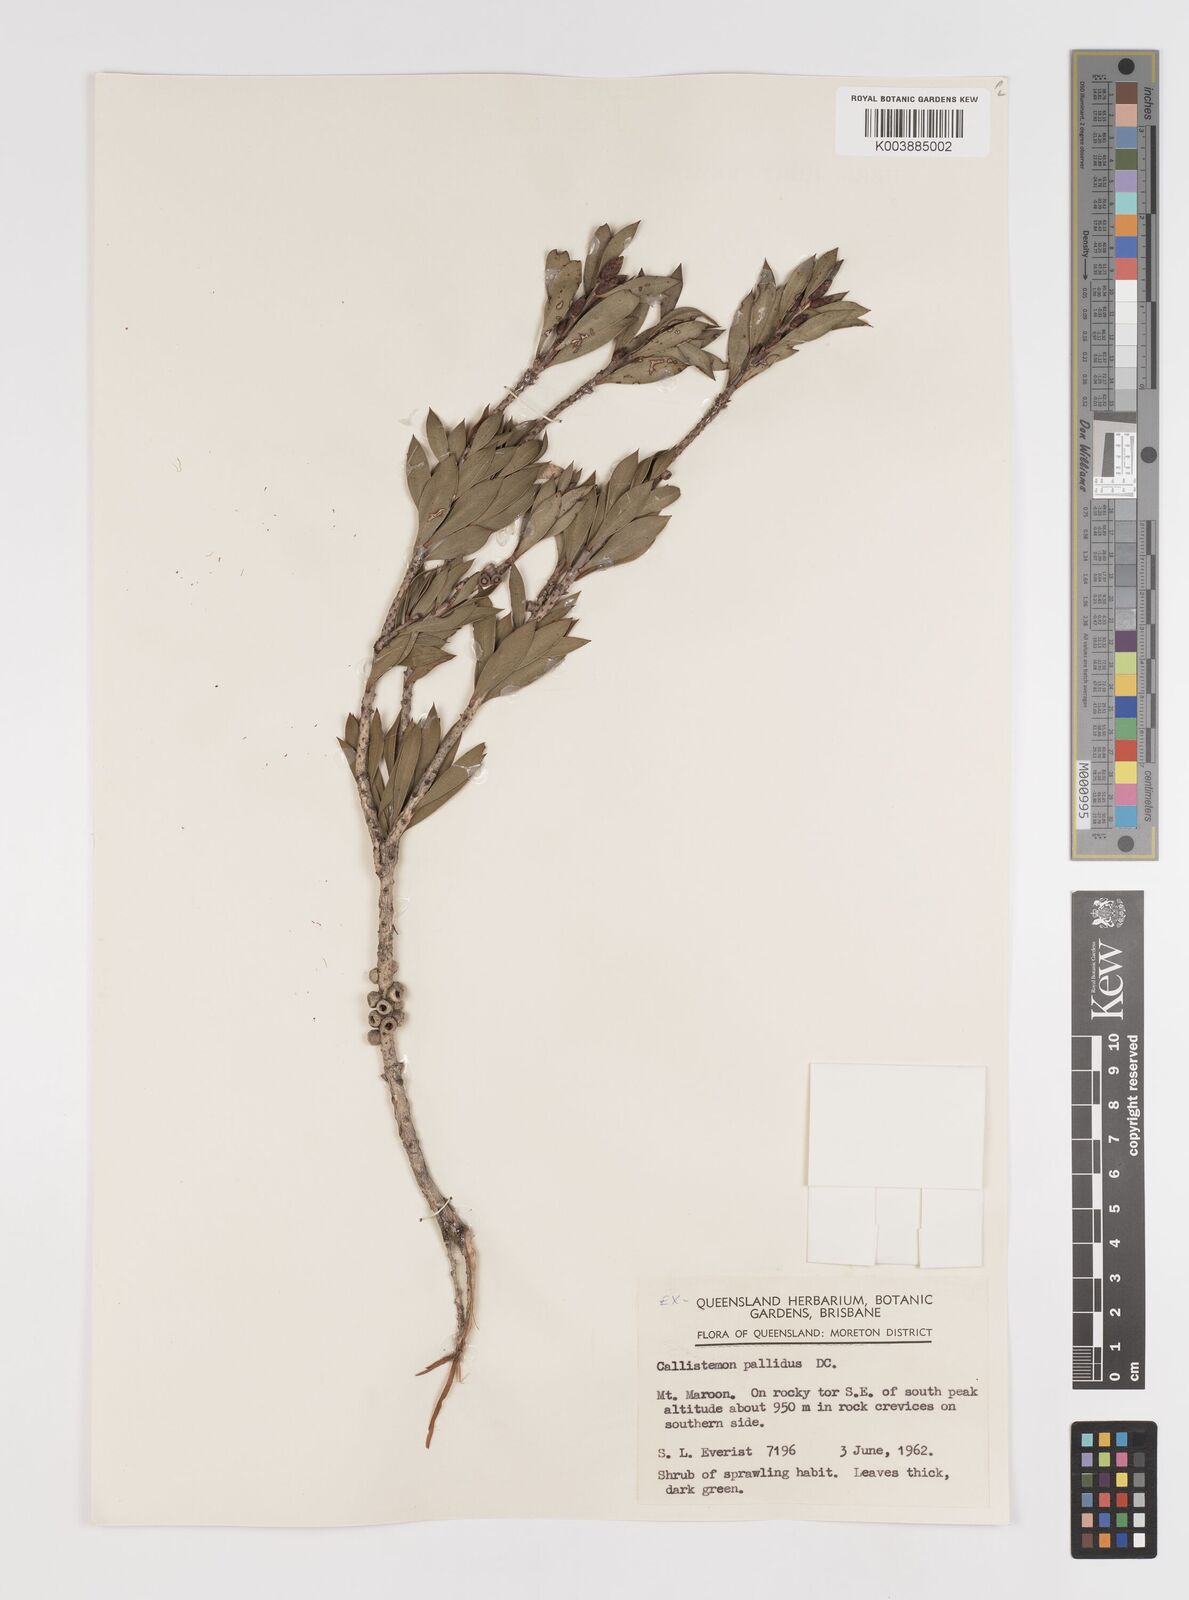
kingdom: Plantae
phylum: Tracheophyta
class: Magnoliopsida
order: Myrtales
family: Myrtaceae
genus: Melaleuca
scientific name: Melaleuca pallida
